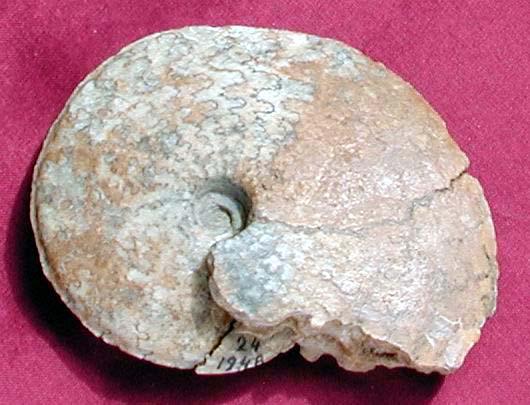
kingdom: Animalia
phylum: Mollusca
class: Cephalopoda
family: Graphoceratidae
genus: Hyperlioceras
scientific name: Hyperlioceras
